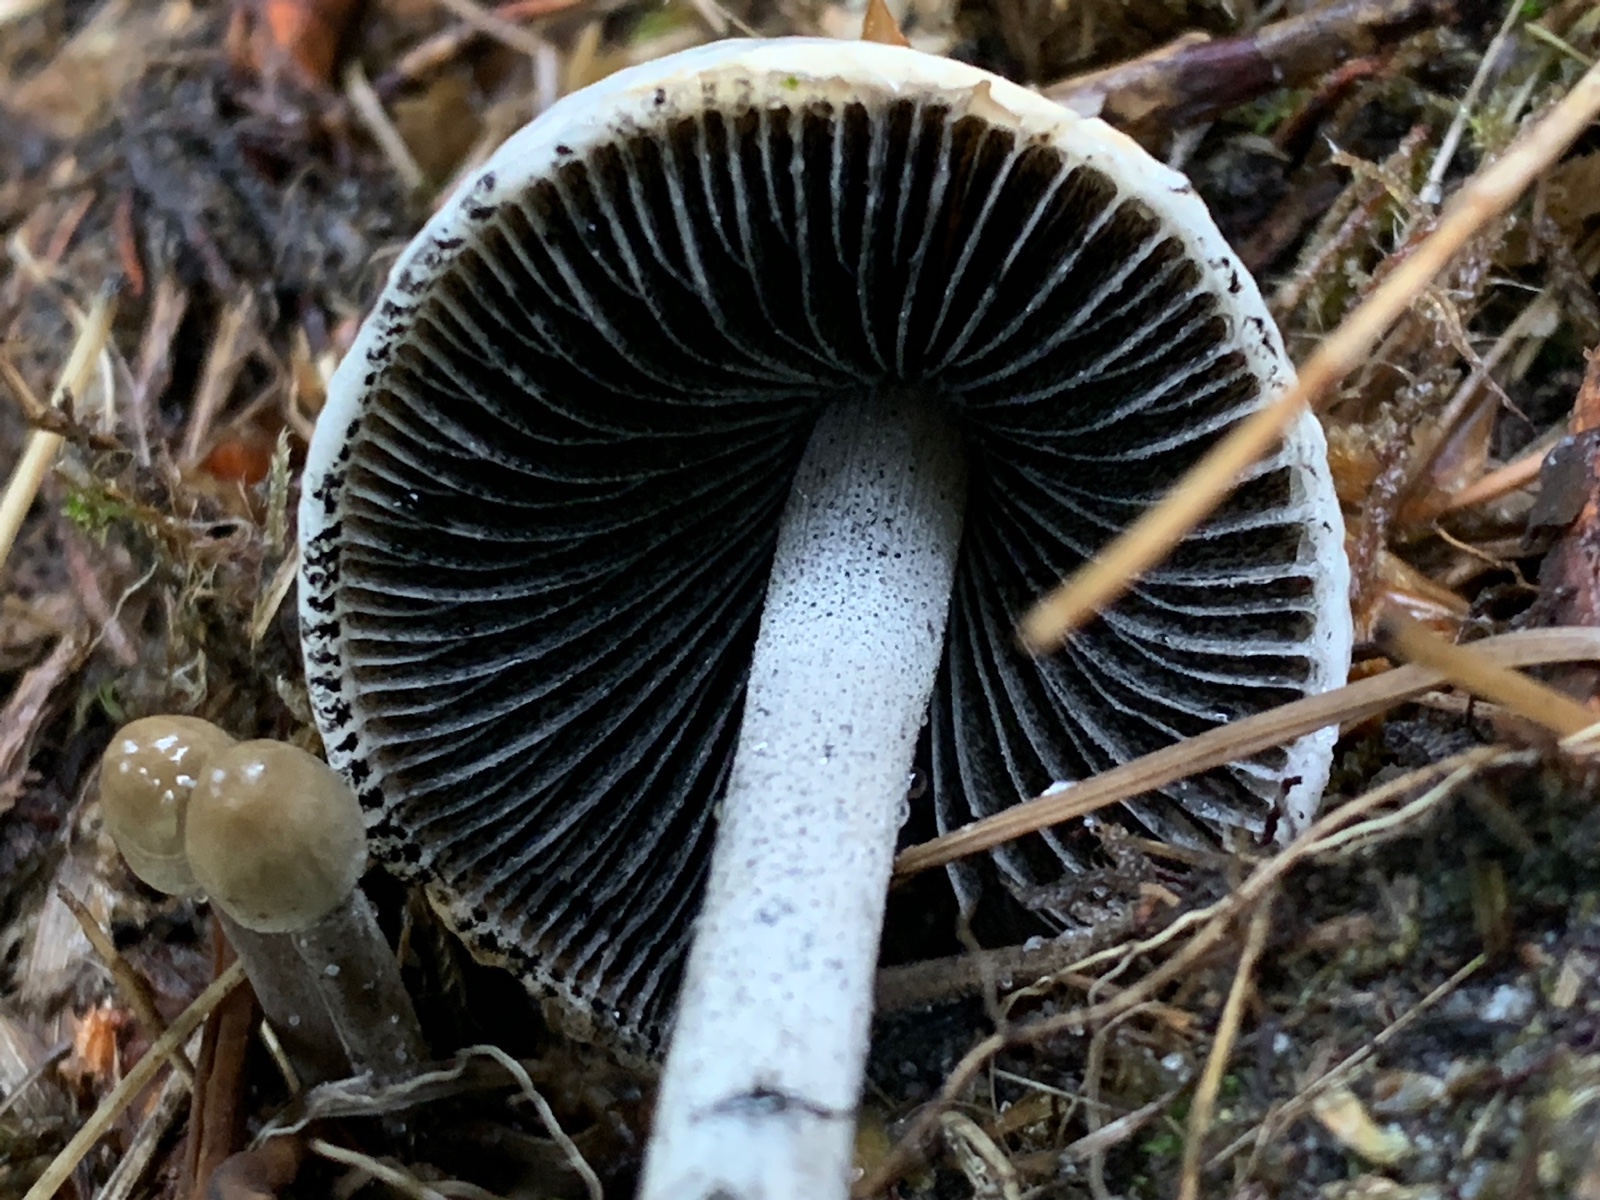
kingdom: Fungi
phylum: Basidiomycota
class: Agaricomycetes
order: Agaricales
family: Bolbitiaceae
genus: Panaeolus
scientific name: Panaeolus semiovatus
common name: ring-glanshat
